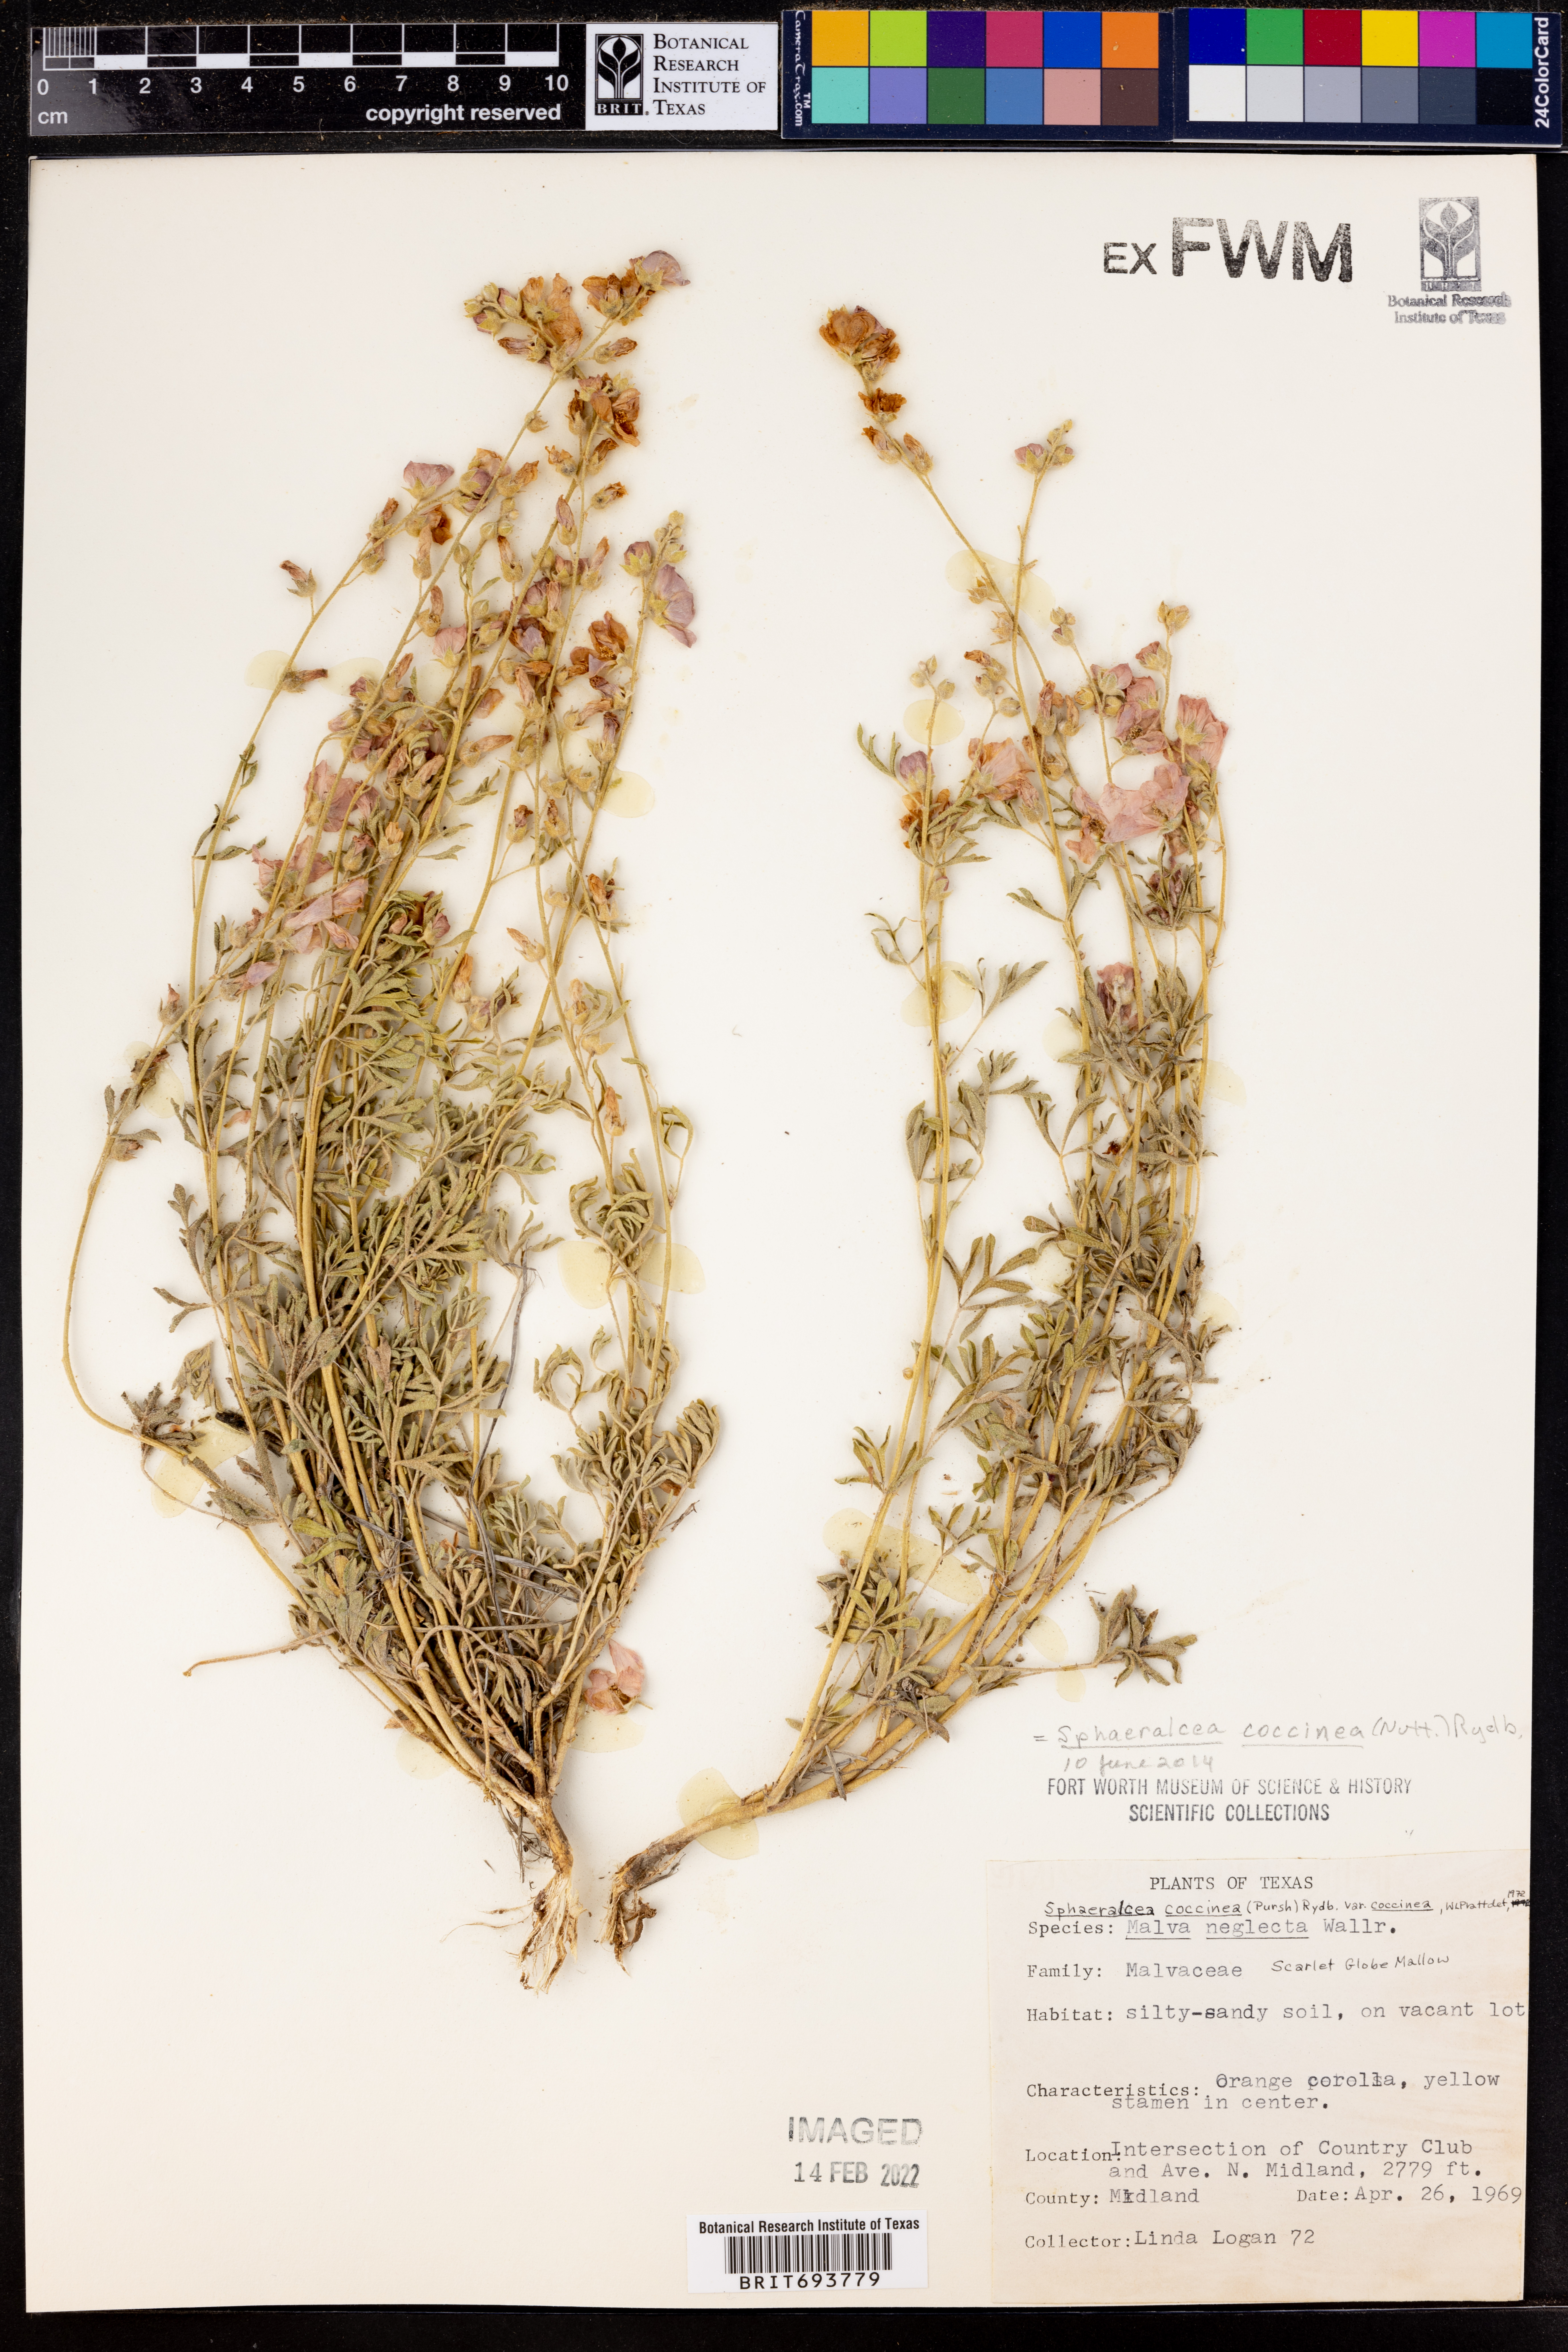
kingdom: Plantae
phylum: Tracheophyta
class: Magnoliopsida
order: Malvales
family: Malvaceae
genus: Sphaeralcea
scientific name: Sphaeralcea coccinea
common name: Moss-rose
